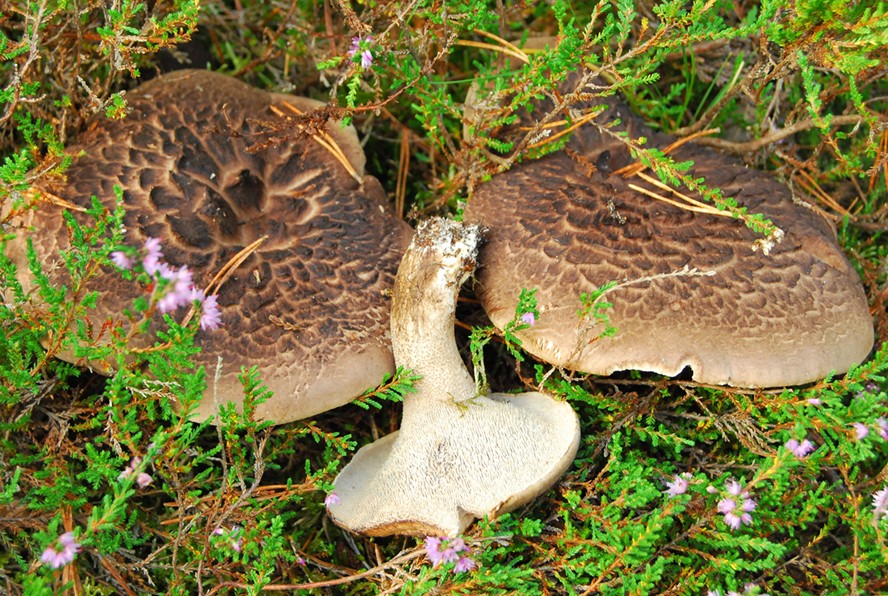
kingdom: Fungi
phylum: Basidiomycota
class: Agaricomycetes
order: Thelephorales
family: Bankeraceae
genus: Sarcodon
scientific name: Sarcodon squamosus
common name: småskællet kødpigsvamp
